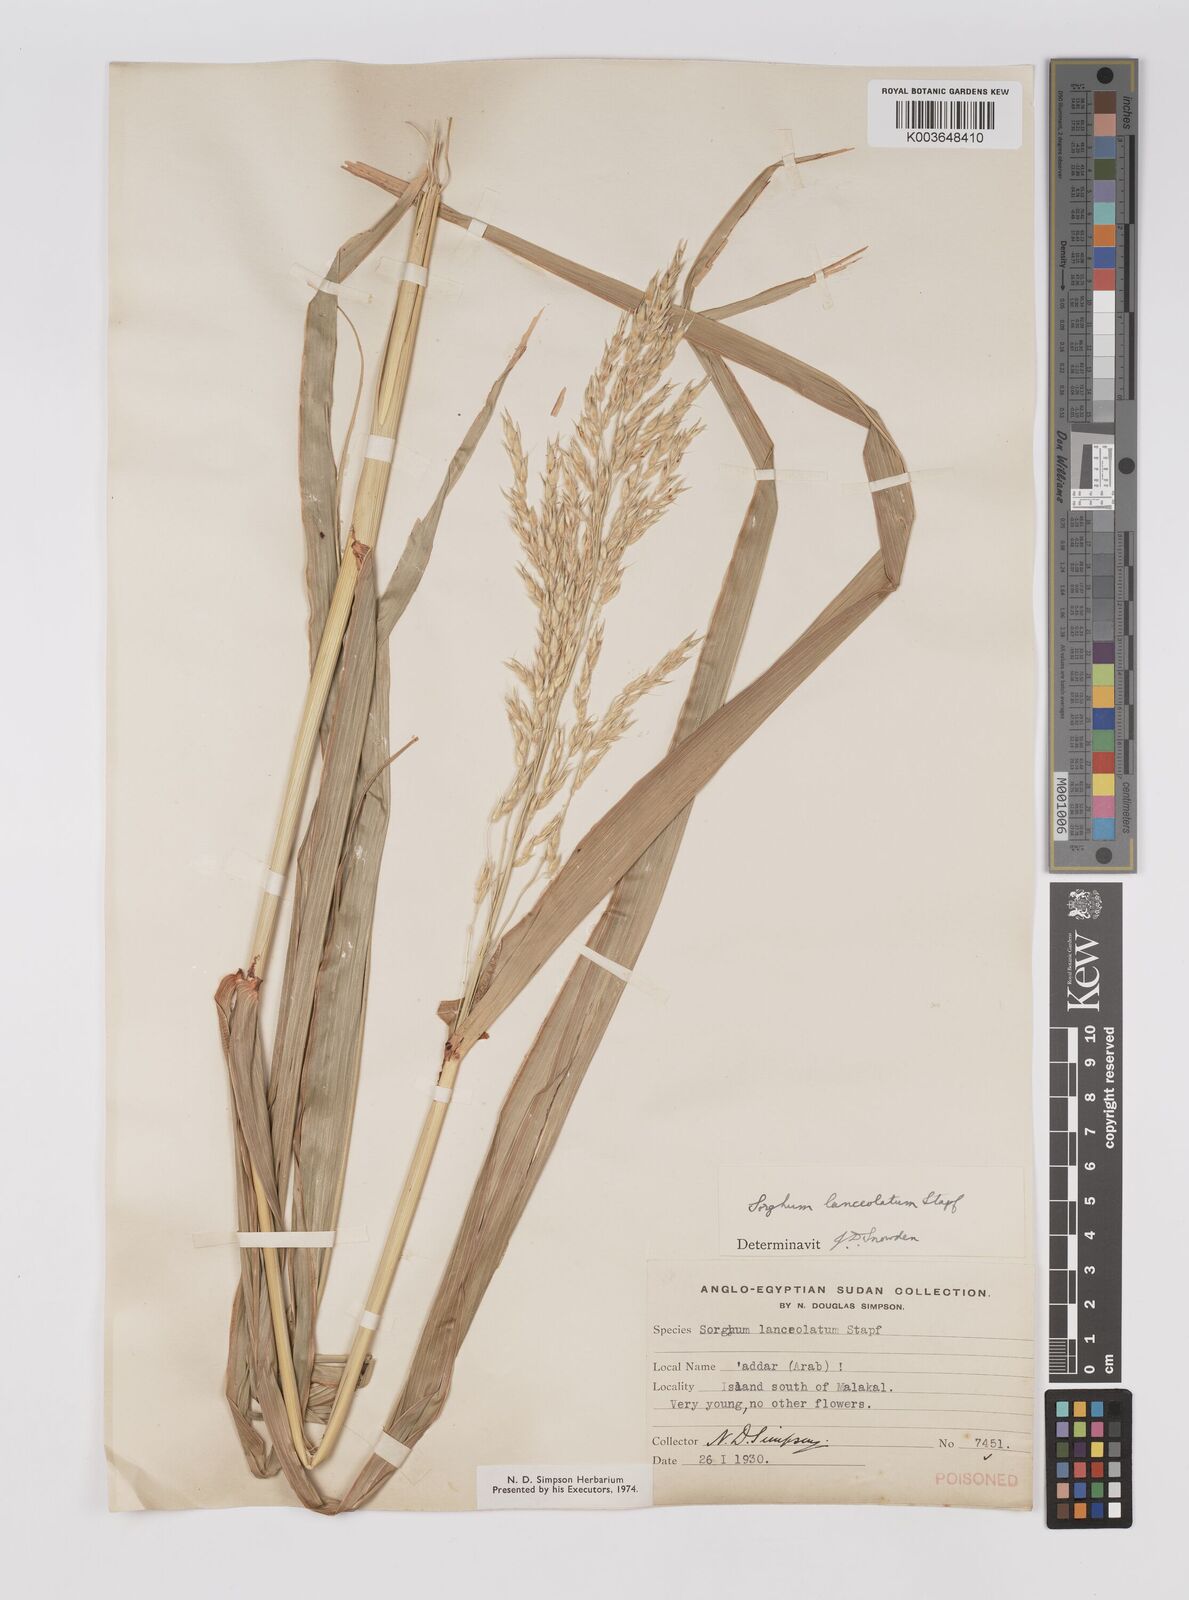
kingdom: Plantae
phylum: Tracheophyta
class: Liliopsida
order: Poales
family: Poaceae
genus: Sorghum
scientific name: Sorghum arundinaceum
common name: Sorghum
